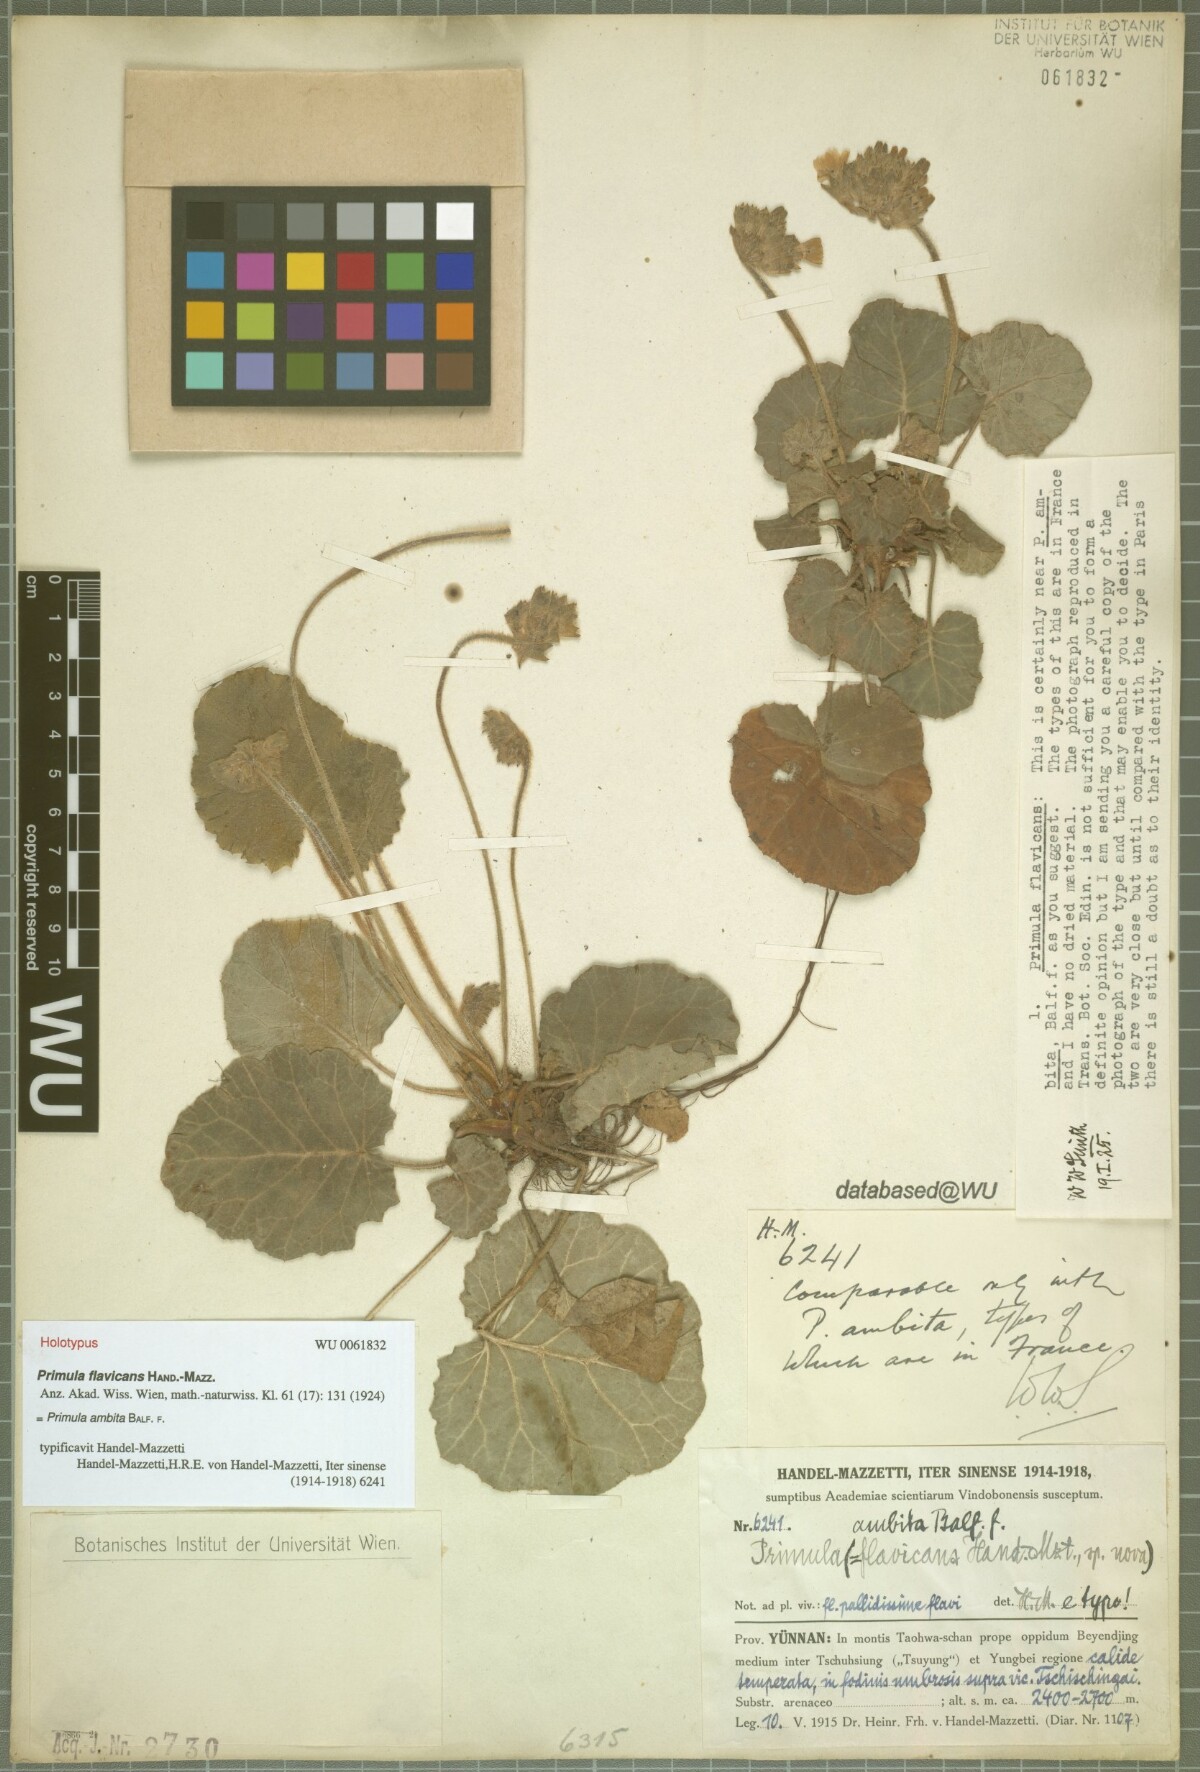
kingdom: Plantae
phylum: Tracheophyta
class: Magnoliopsida
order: Ericales
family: Primulaceae
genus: Primula
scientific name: Primula ambita
